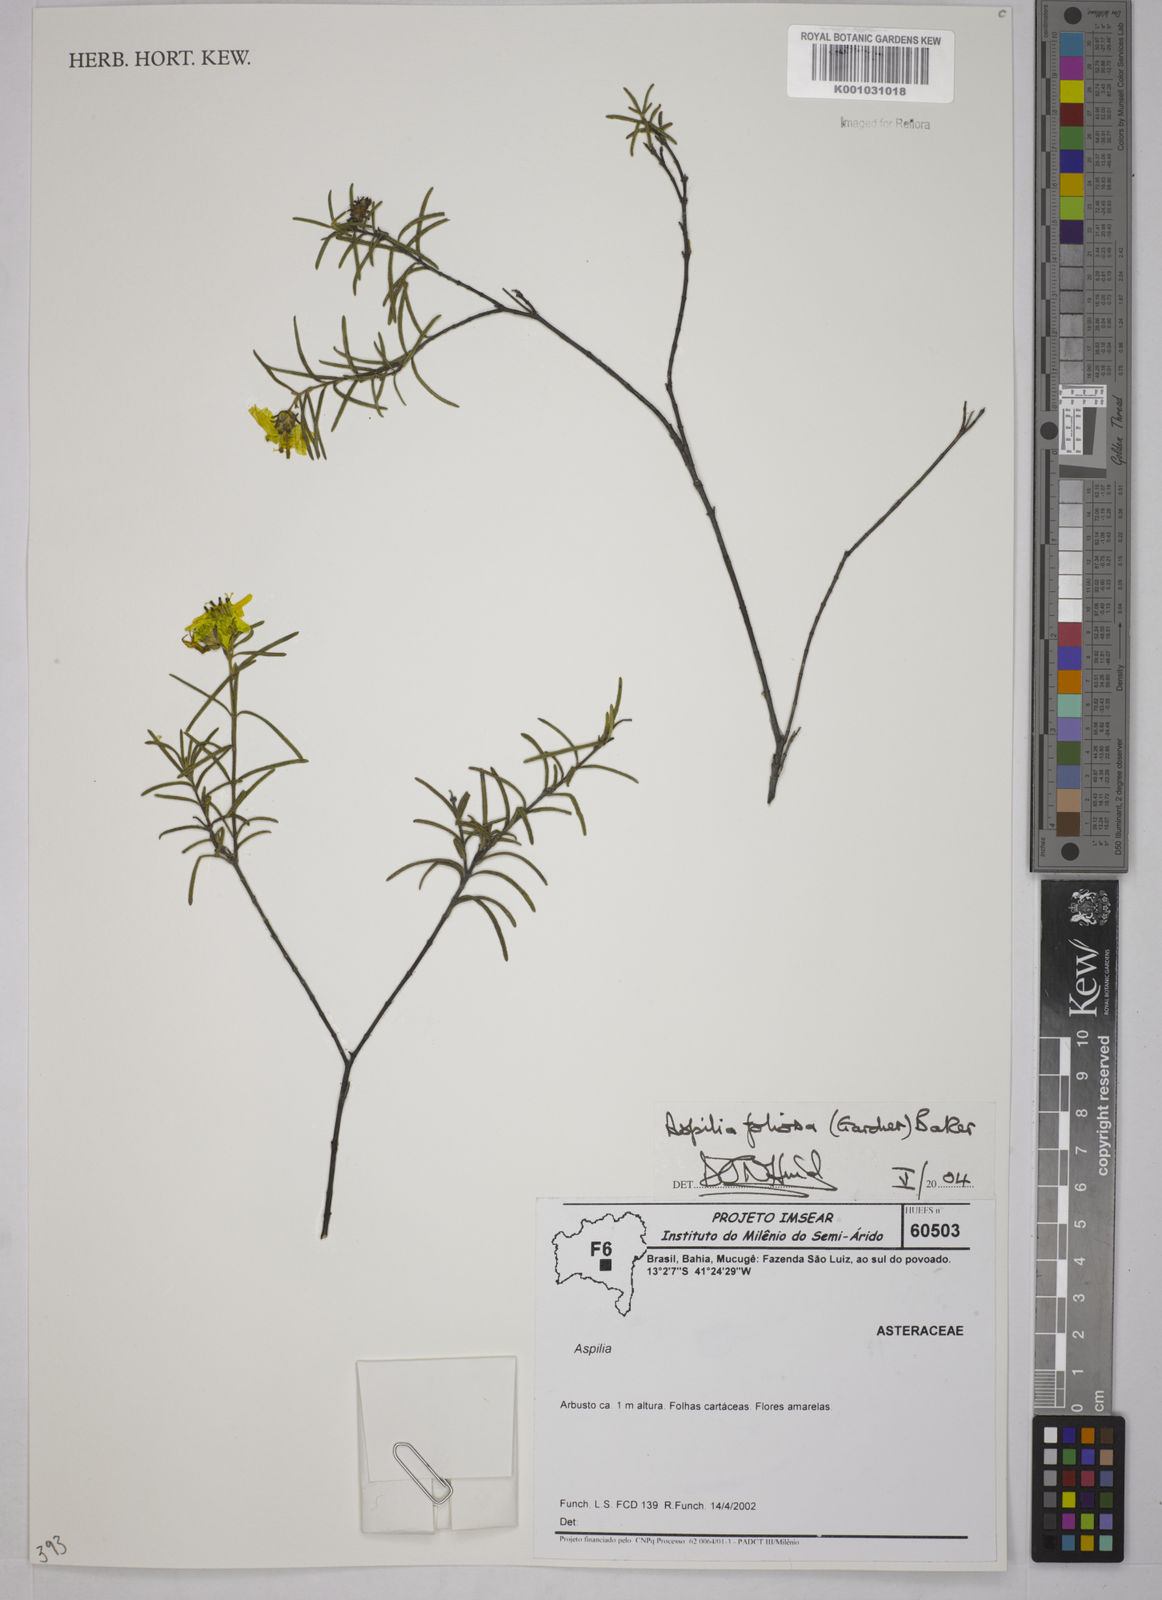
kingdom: Plantae
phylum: Tracheophyta
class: Magnoliopsida
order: Asterales
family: Asteraceae
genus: Aspilia
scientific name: Aspilia
